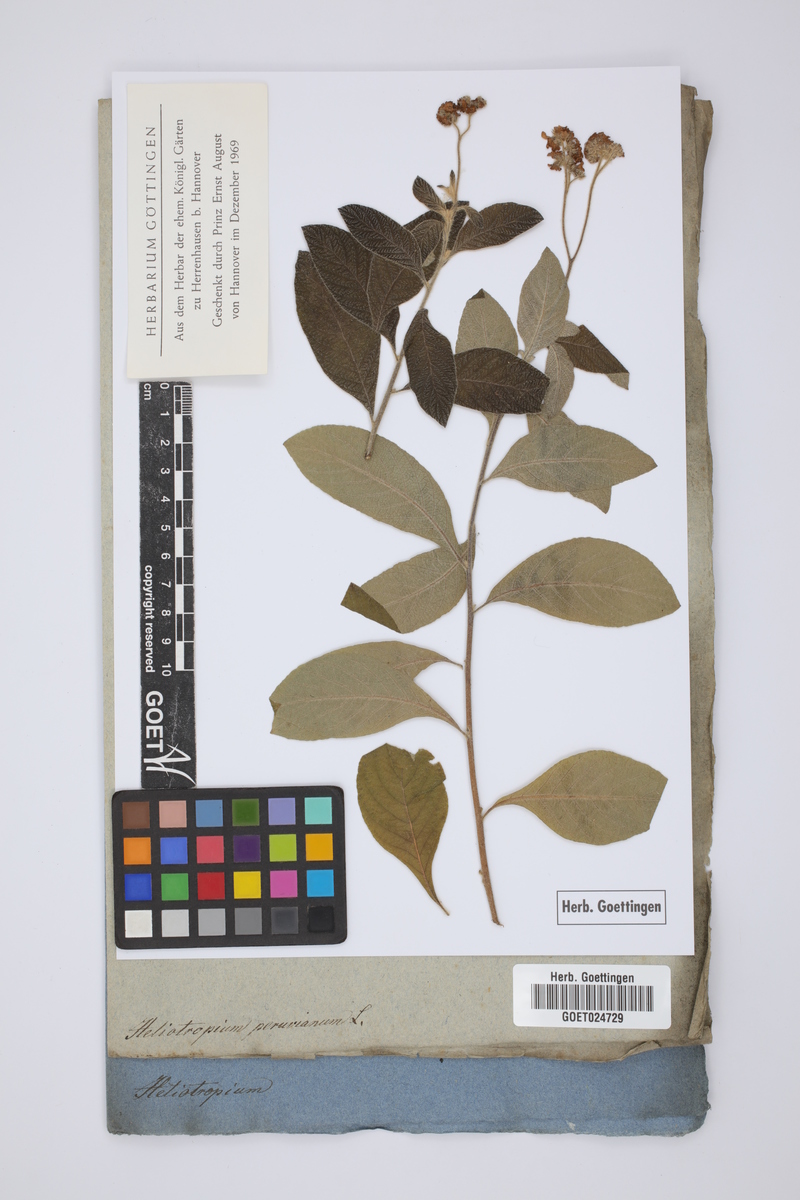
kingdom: Plantae
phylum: Tracheophyta
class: Magnoliopsida
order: Boraginales
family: Heliotropiaceae
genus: Heliotropium
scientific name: Heliotropium arborescens
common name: Cherry-pie
